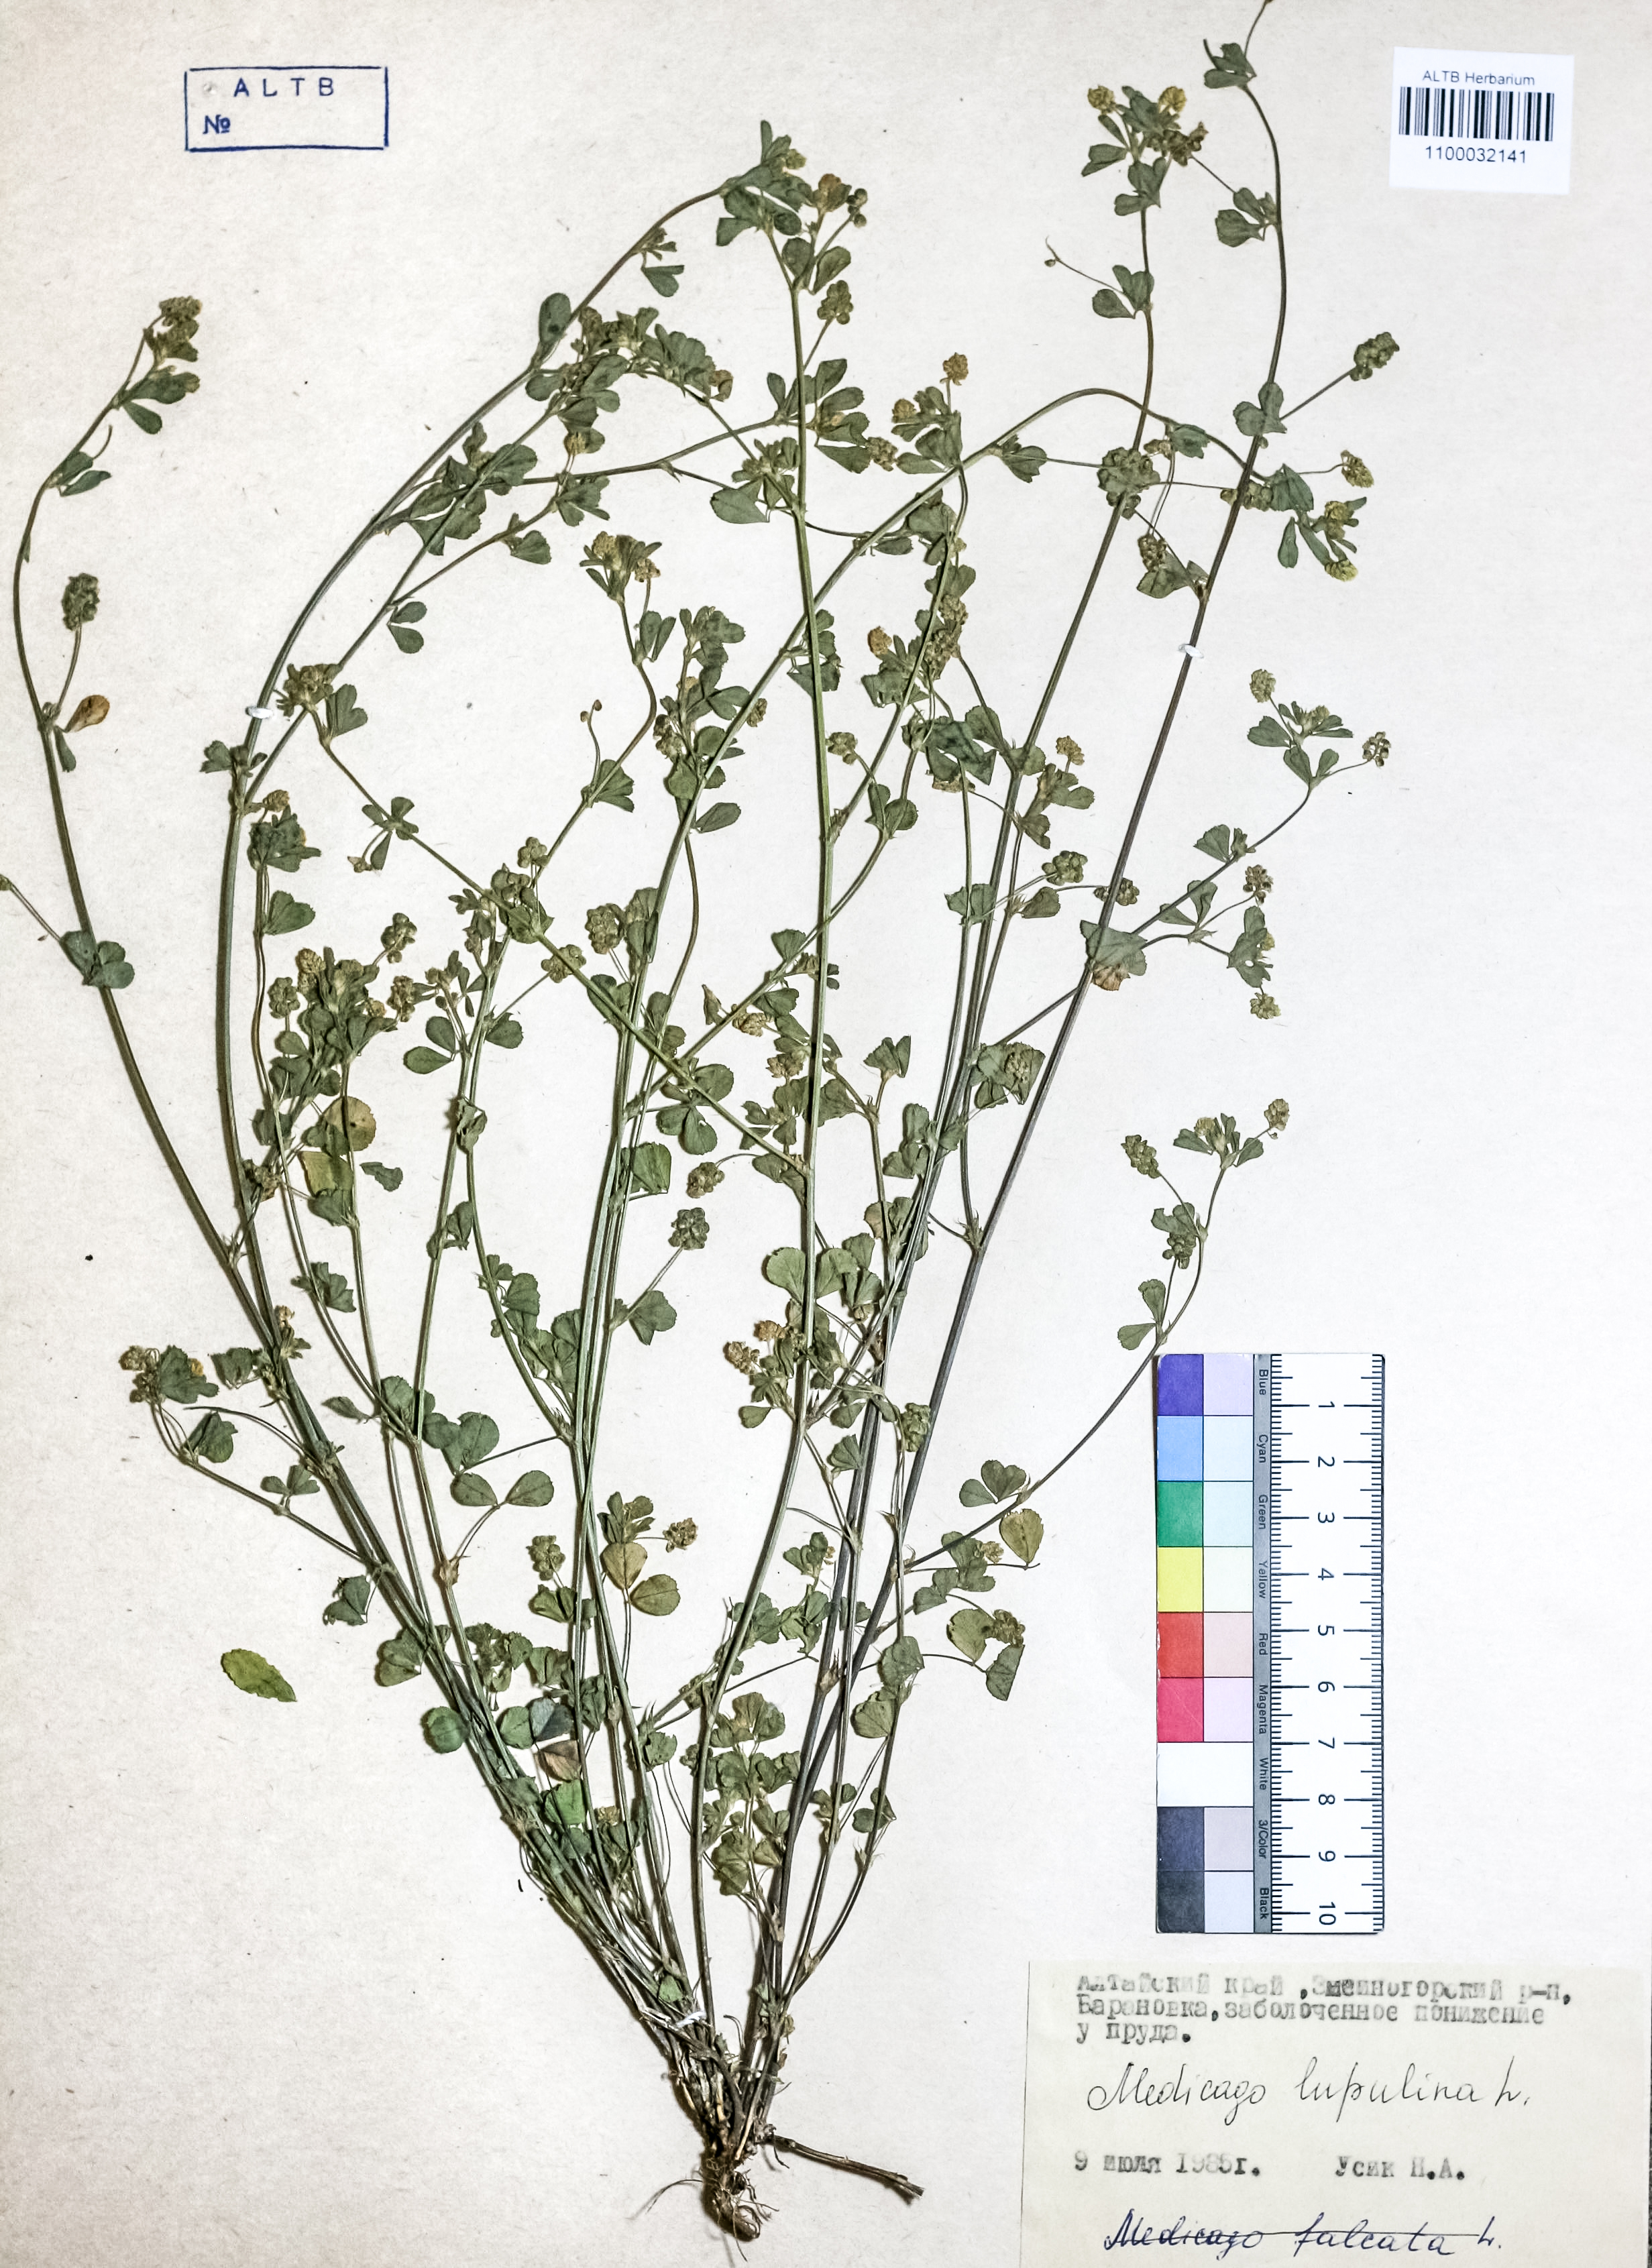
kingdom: Plantae
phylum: Tracheophyta
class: Magnoliopsida
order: Fabales
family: Fabaceae
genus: Medicago
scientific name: Medicago lupulina
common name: Black medick
